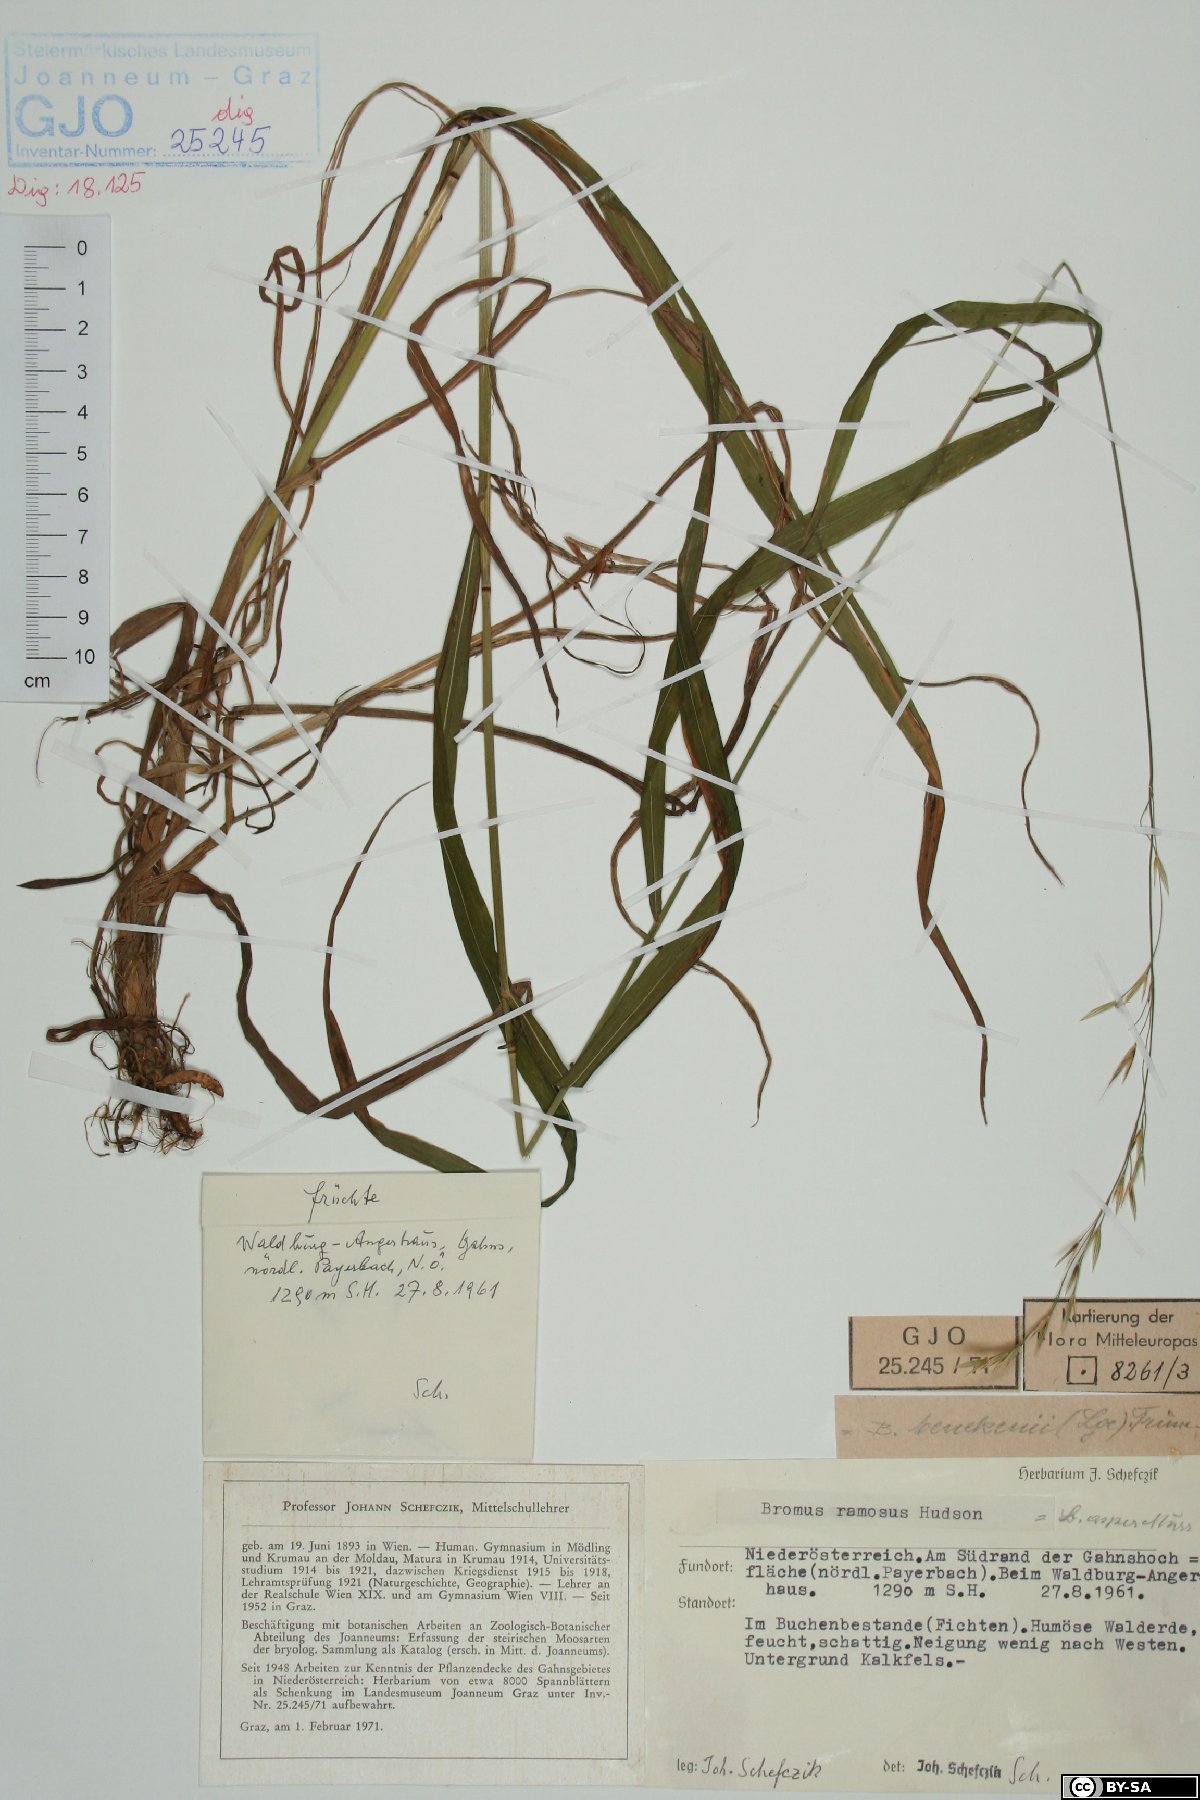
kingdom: Plantae
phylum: Tracheophyta
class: Liliopsida
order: Poales
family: Poaceae
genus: Bromus
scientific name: Bromus ramosus
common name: Hairy brome
